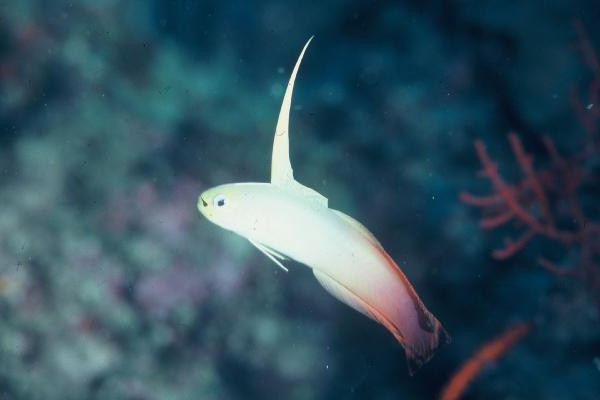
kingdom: Animalia
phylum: Chordata
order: Perciformes
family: Microdesmidae
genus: Nemateleotris
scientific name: Nemateleotris magnifica
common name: Fire goby
